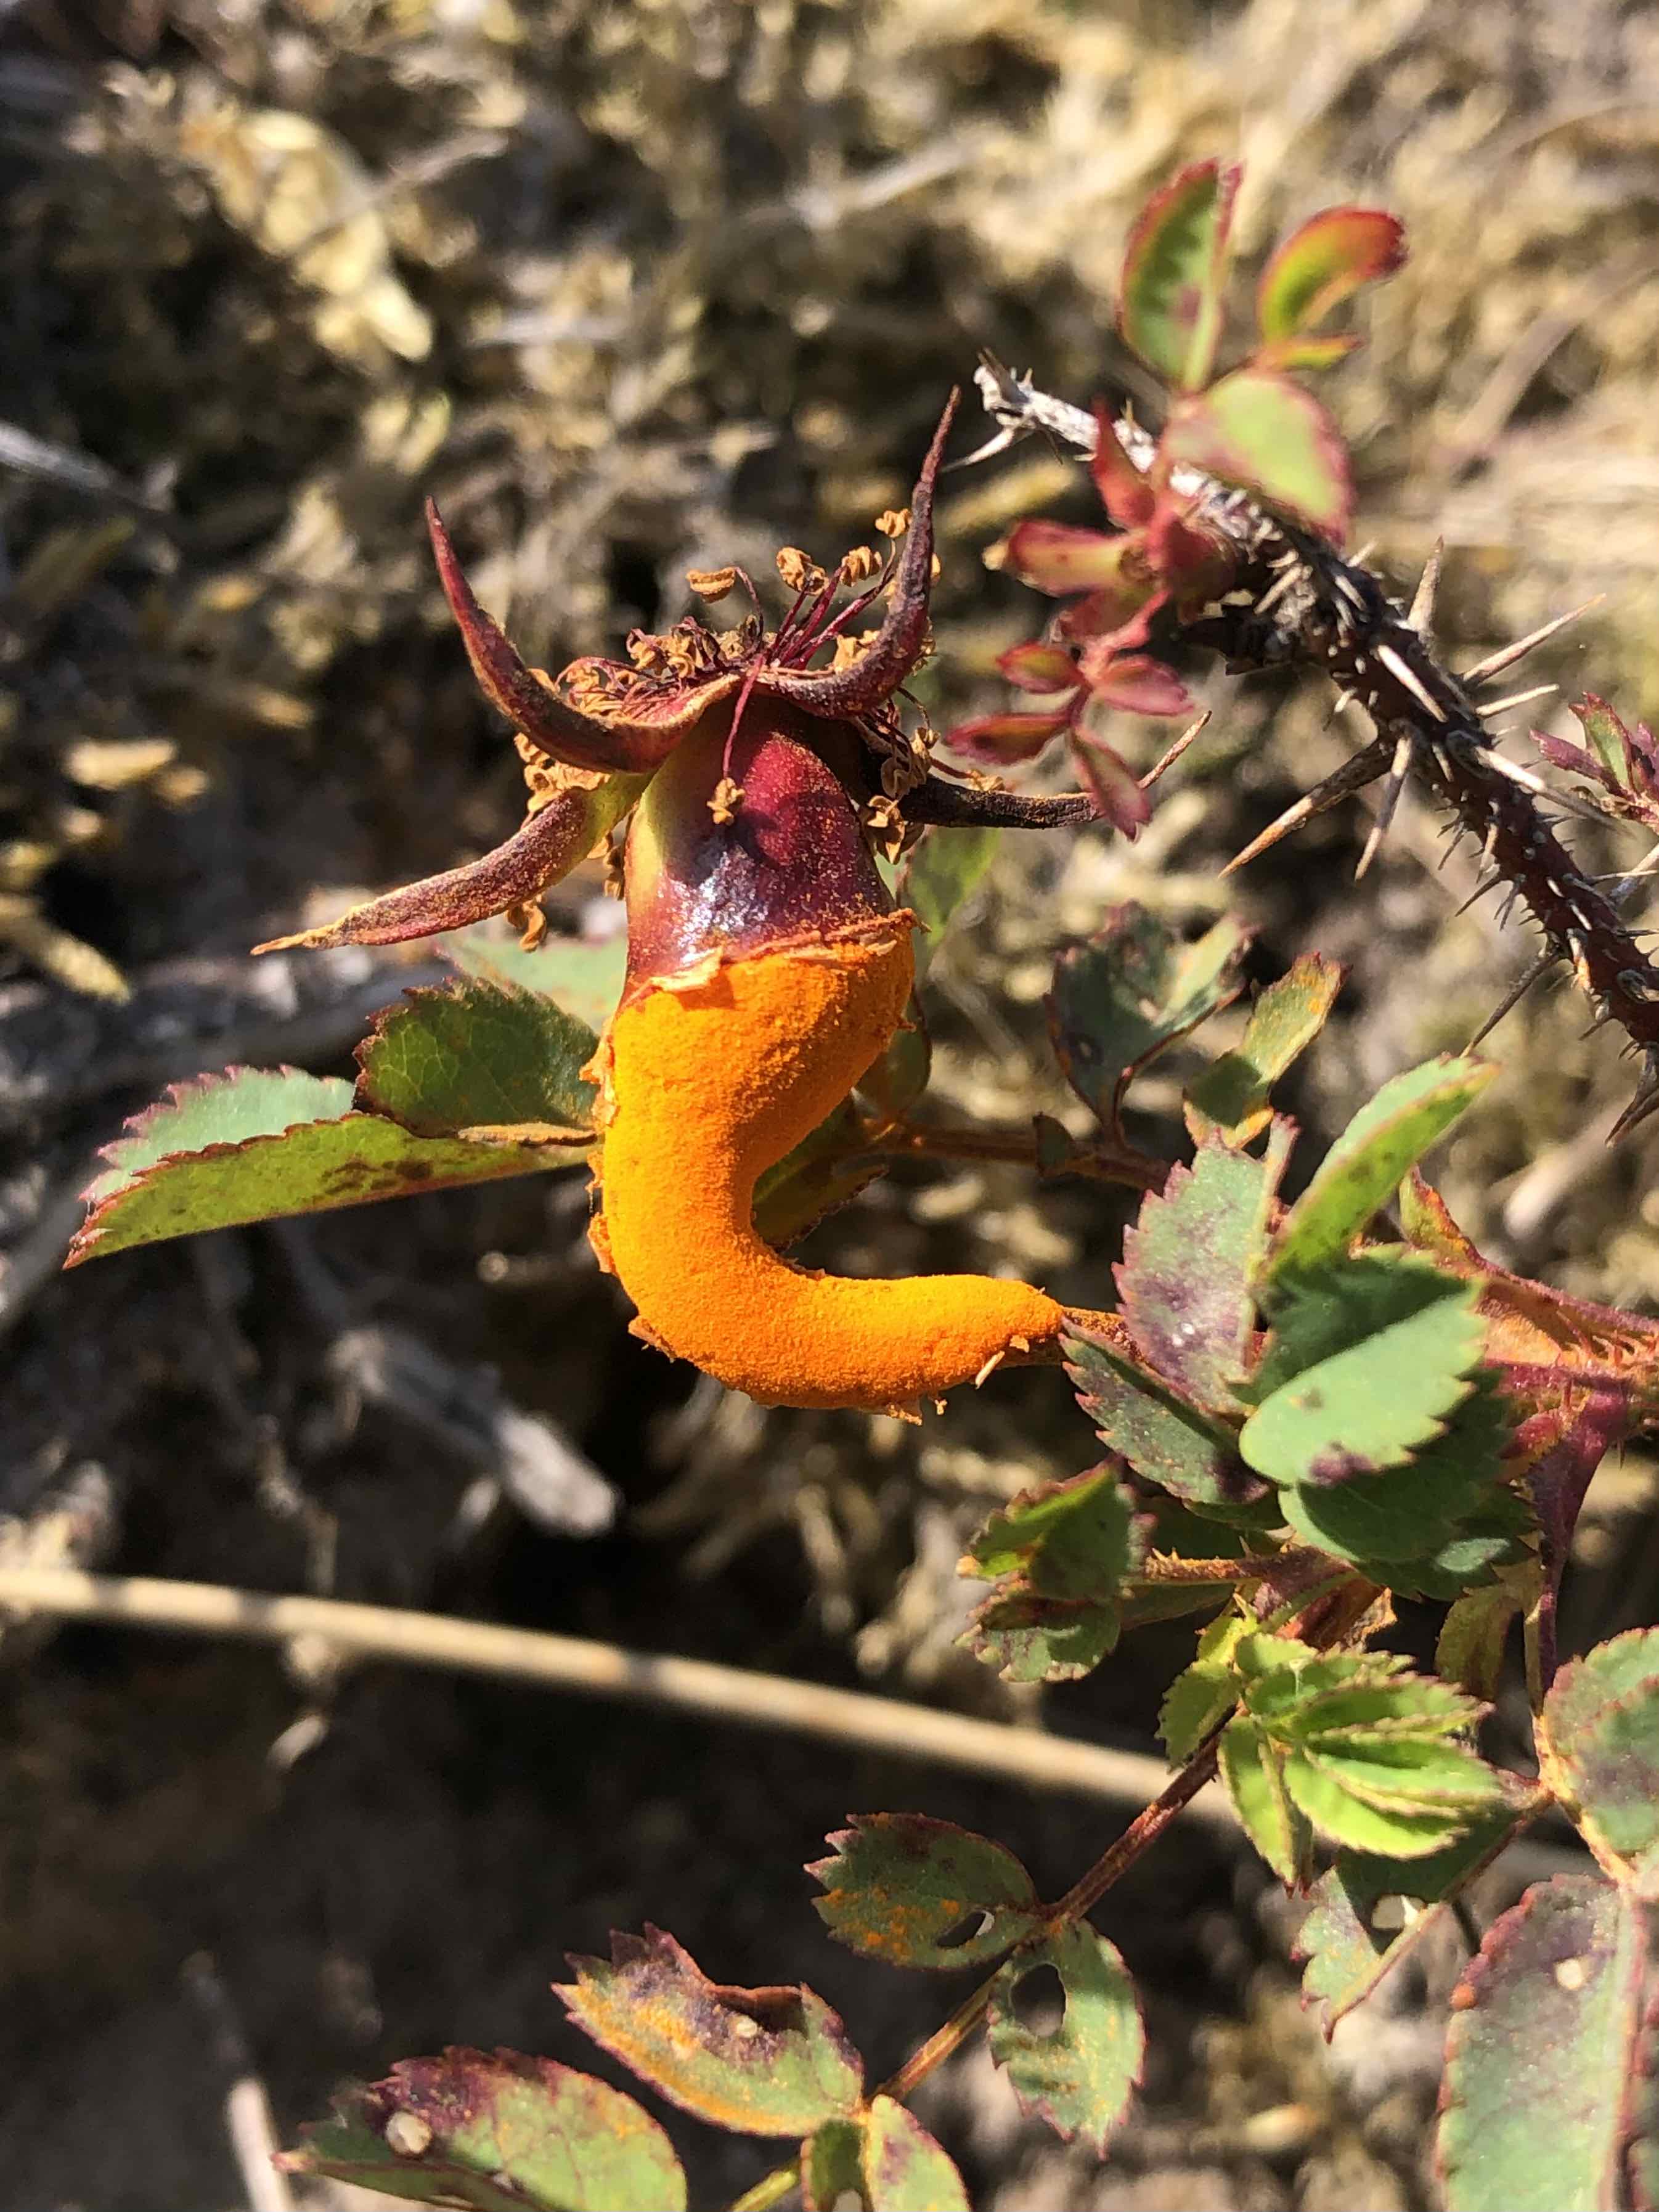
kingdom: Fungi
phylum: Basidiomycota
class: Pucciniomycetes
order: Pucciniales
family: Phragmidiaceae
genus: Phragmidium
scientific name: Phragmidium rosae-pimpinellifoliae
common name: Burnet rose rust
